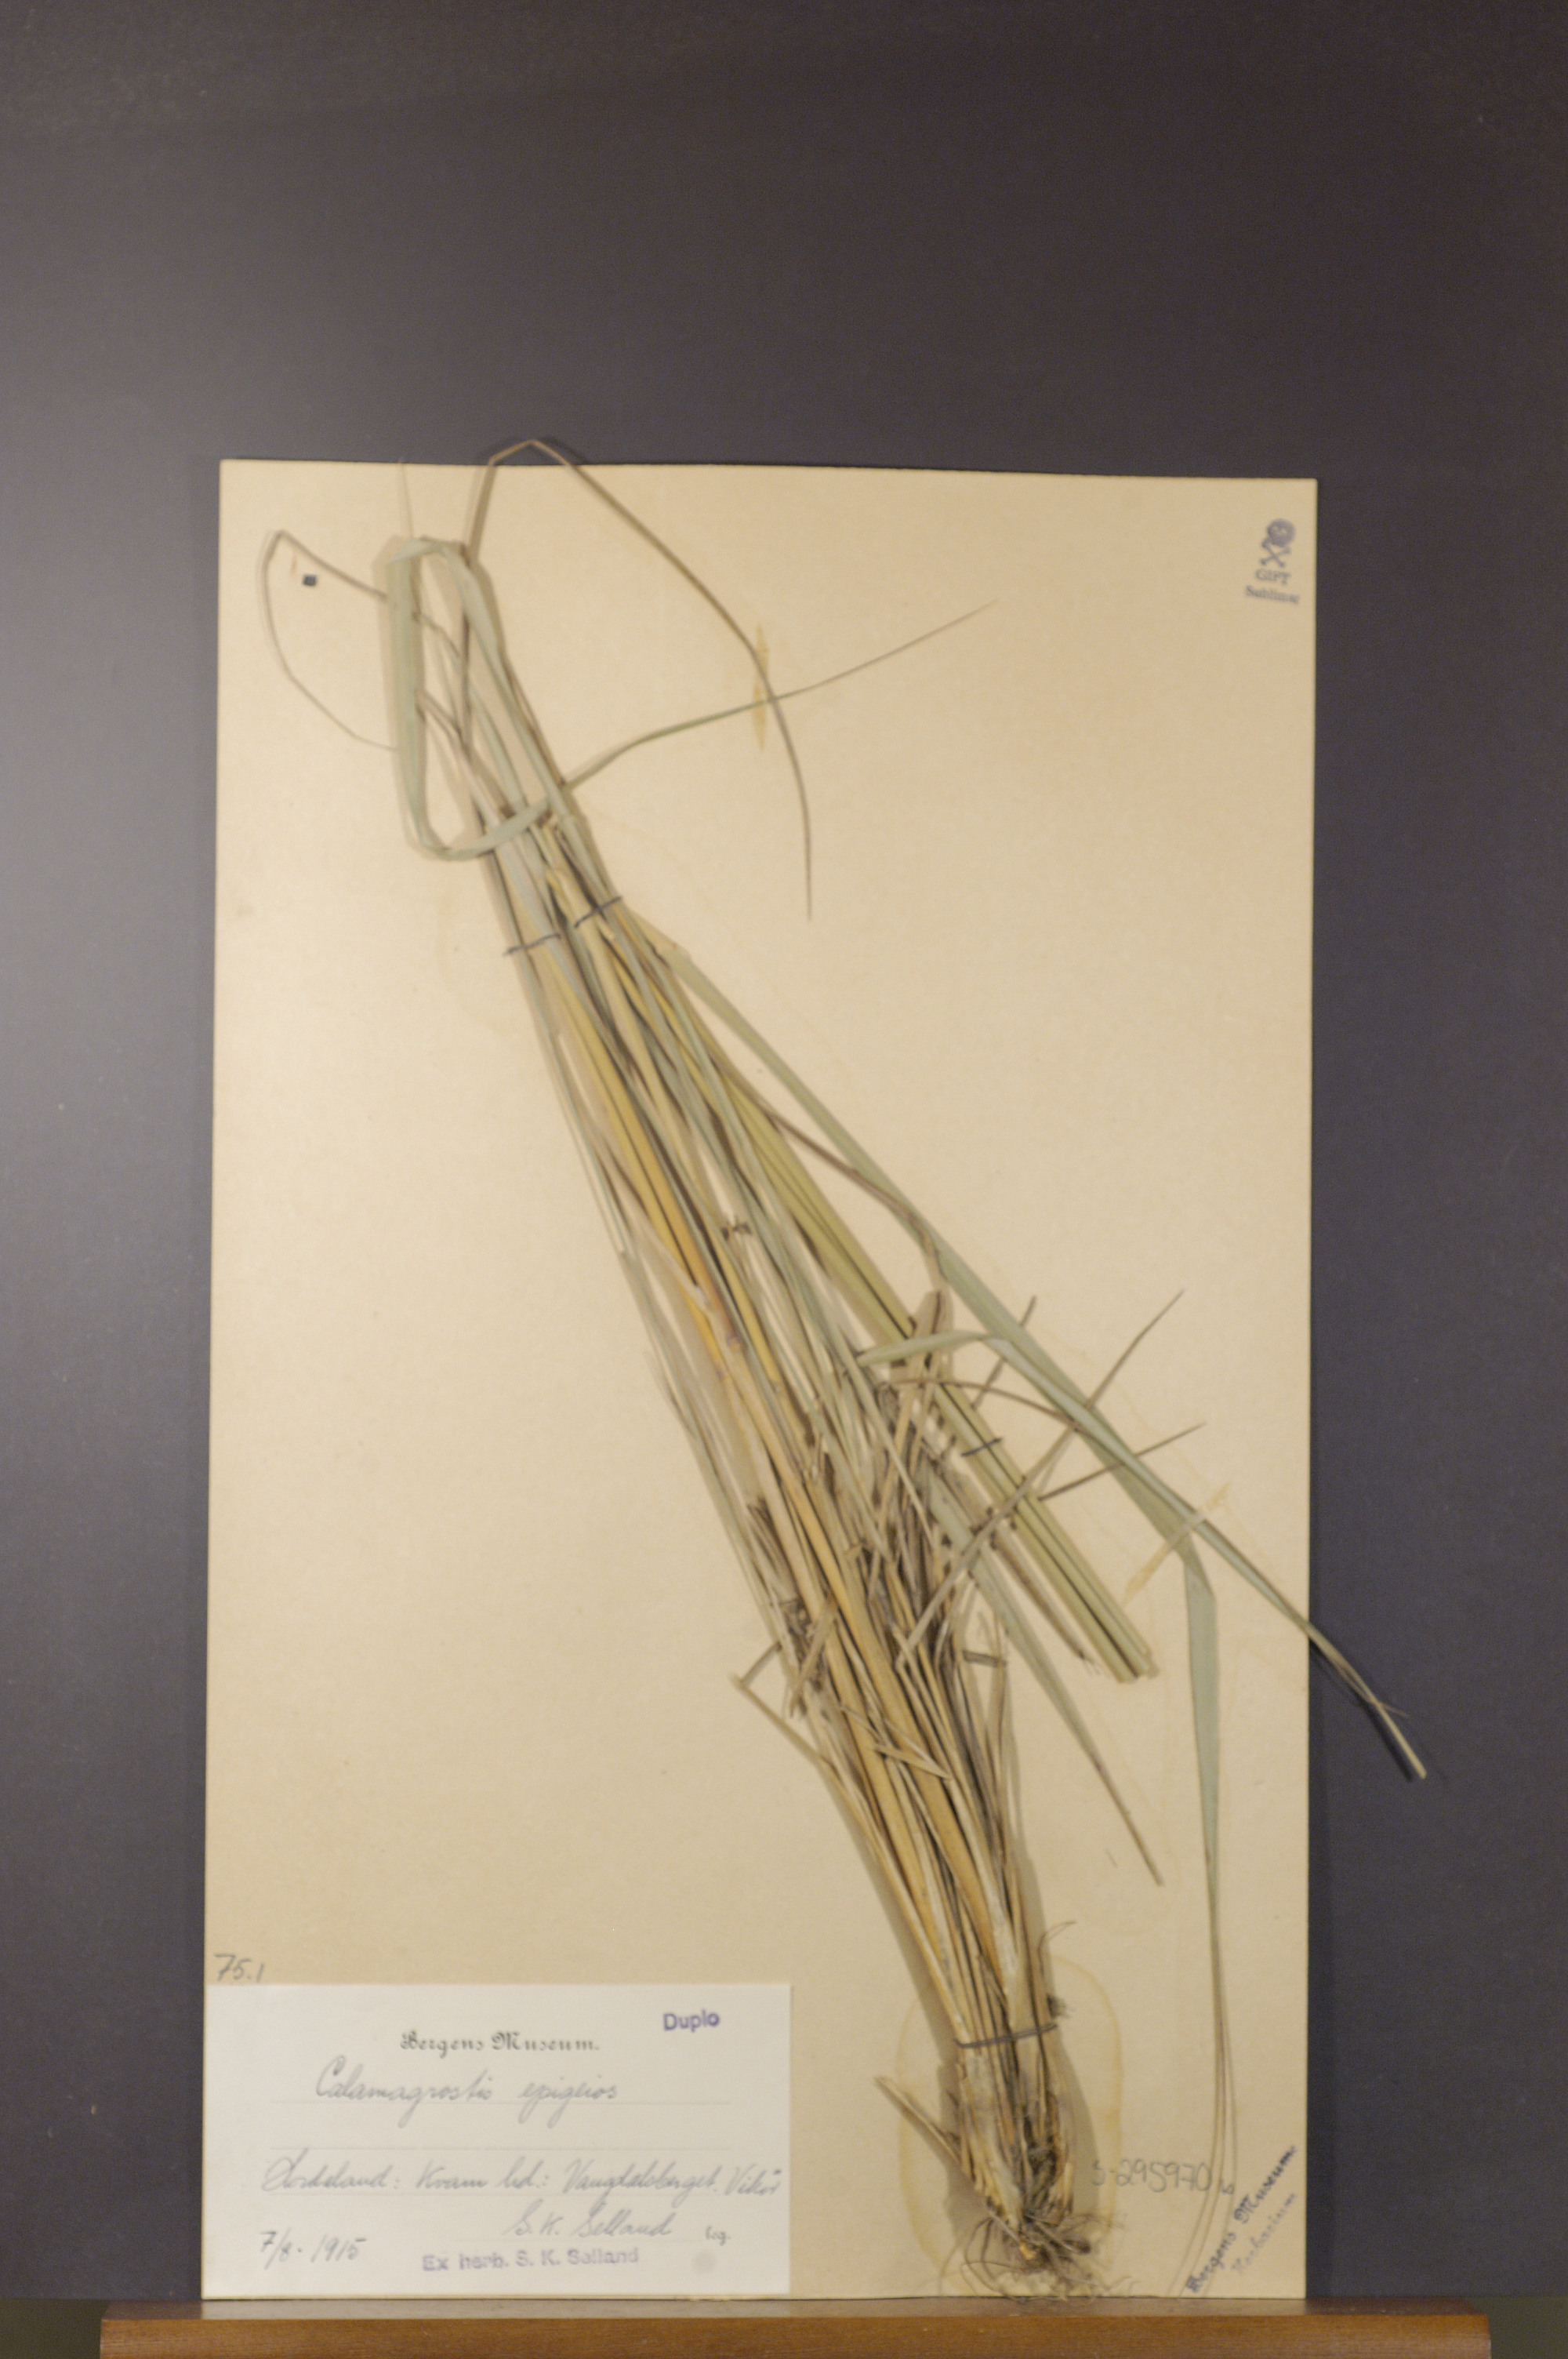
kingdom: Plantae
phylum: Tracheophyta
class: Liliopsida
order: Poales
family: Poaceae
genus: Calamagrostis
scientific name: Calamagrostis epigejos
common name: Wood small-reed
